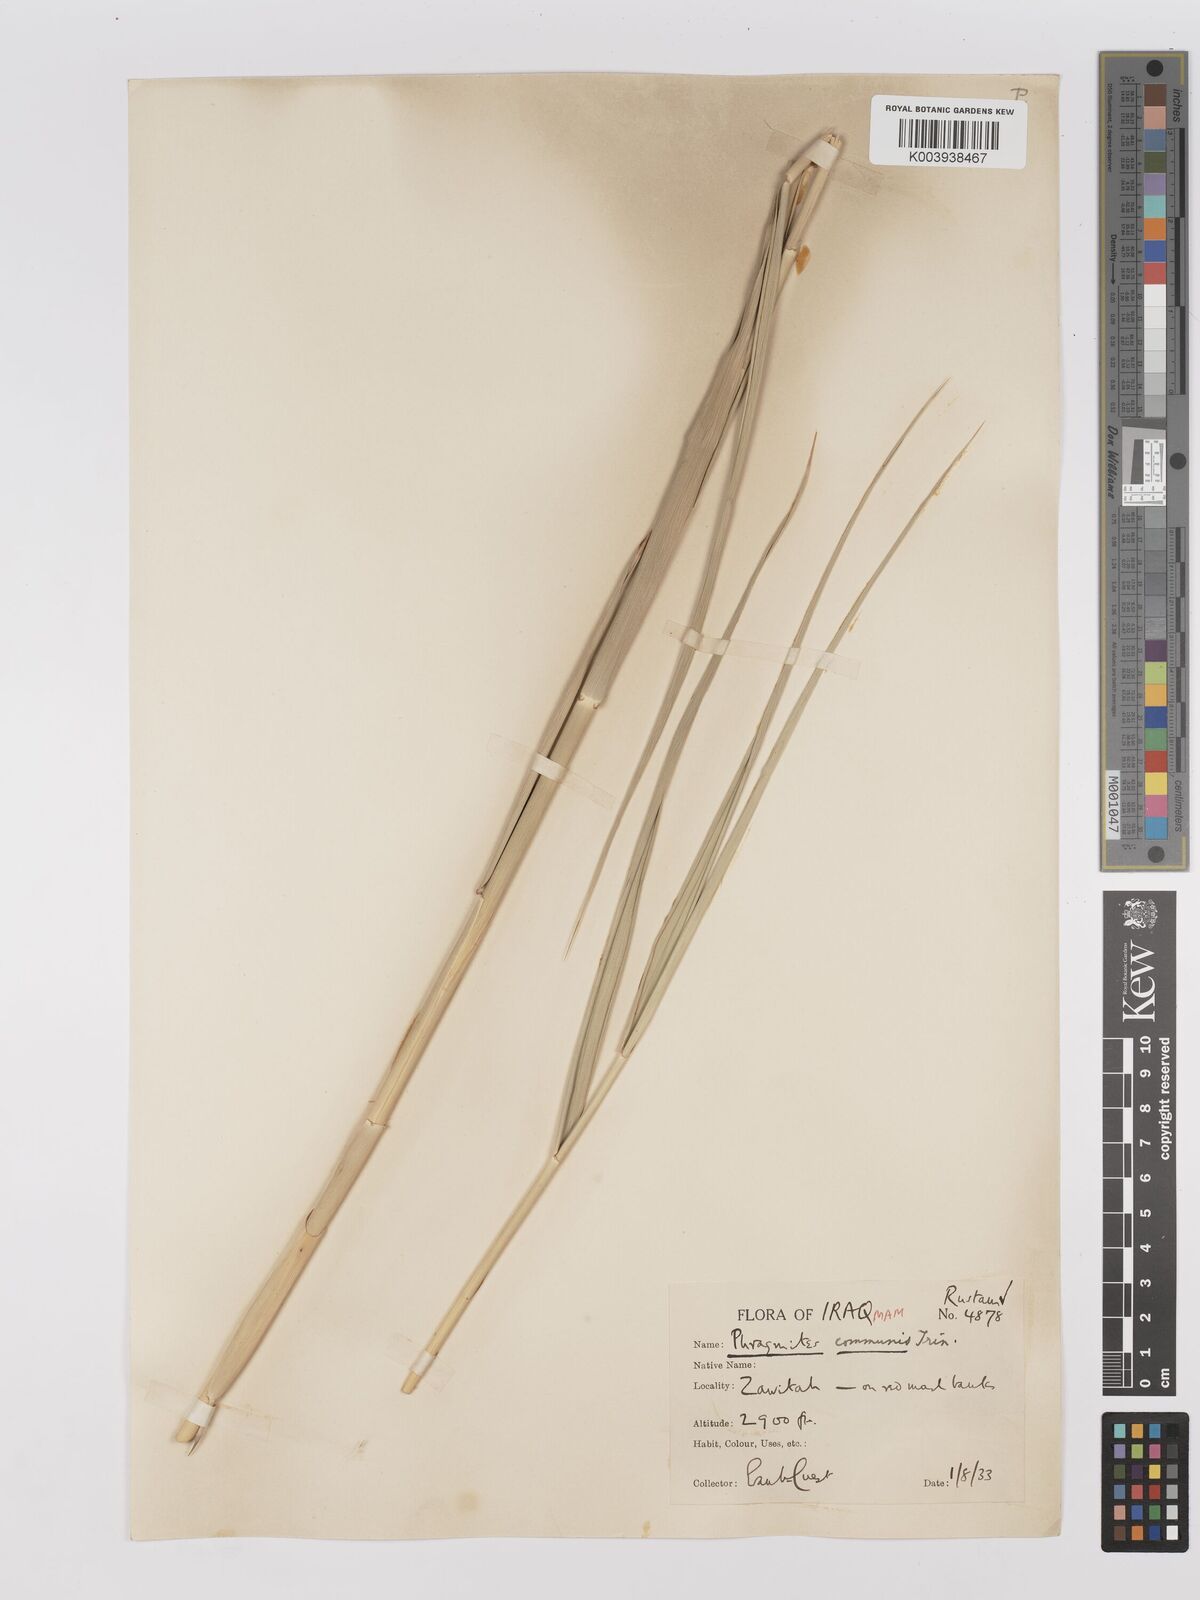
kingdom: Plantae
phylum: Tracheophyta
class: Liliopsida
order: Poales
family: Poaceae
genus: Phragmites
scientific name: Phragmites australis
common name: Common reed
